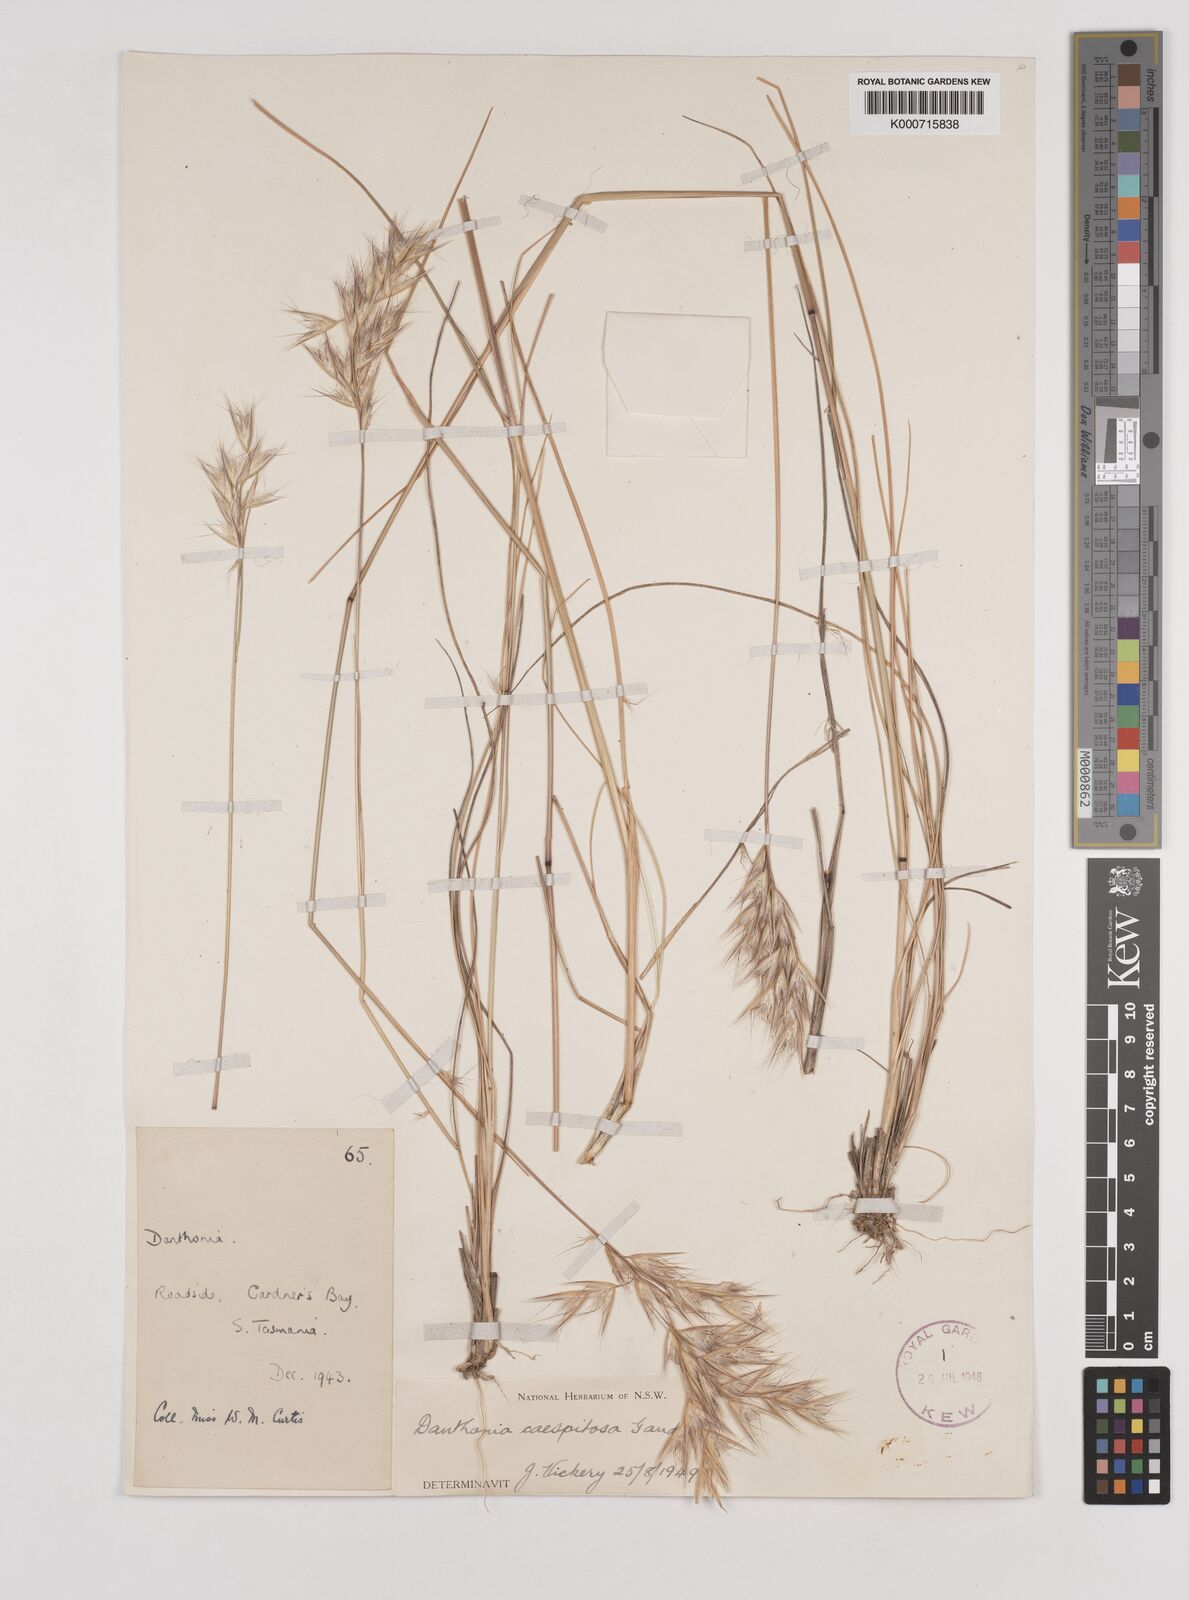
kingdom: Plantae
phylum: Tracheophyta
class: Liliopsida
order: Poales
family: Poaceae
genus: Rytidosperma
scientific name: Rytidosperma caespitosum
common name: Tufted wallaby grass
